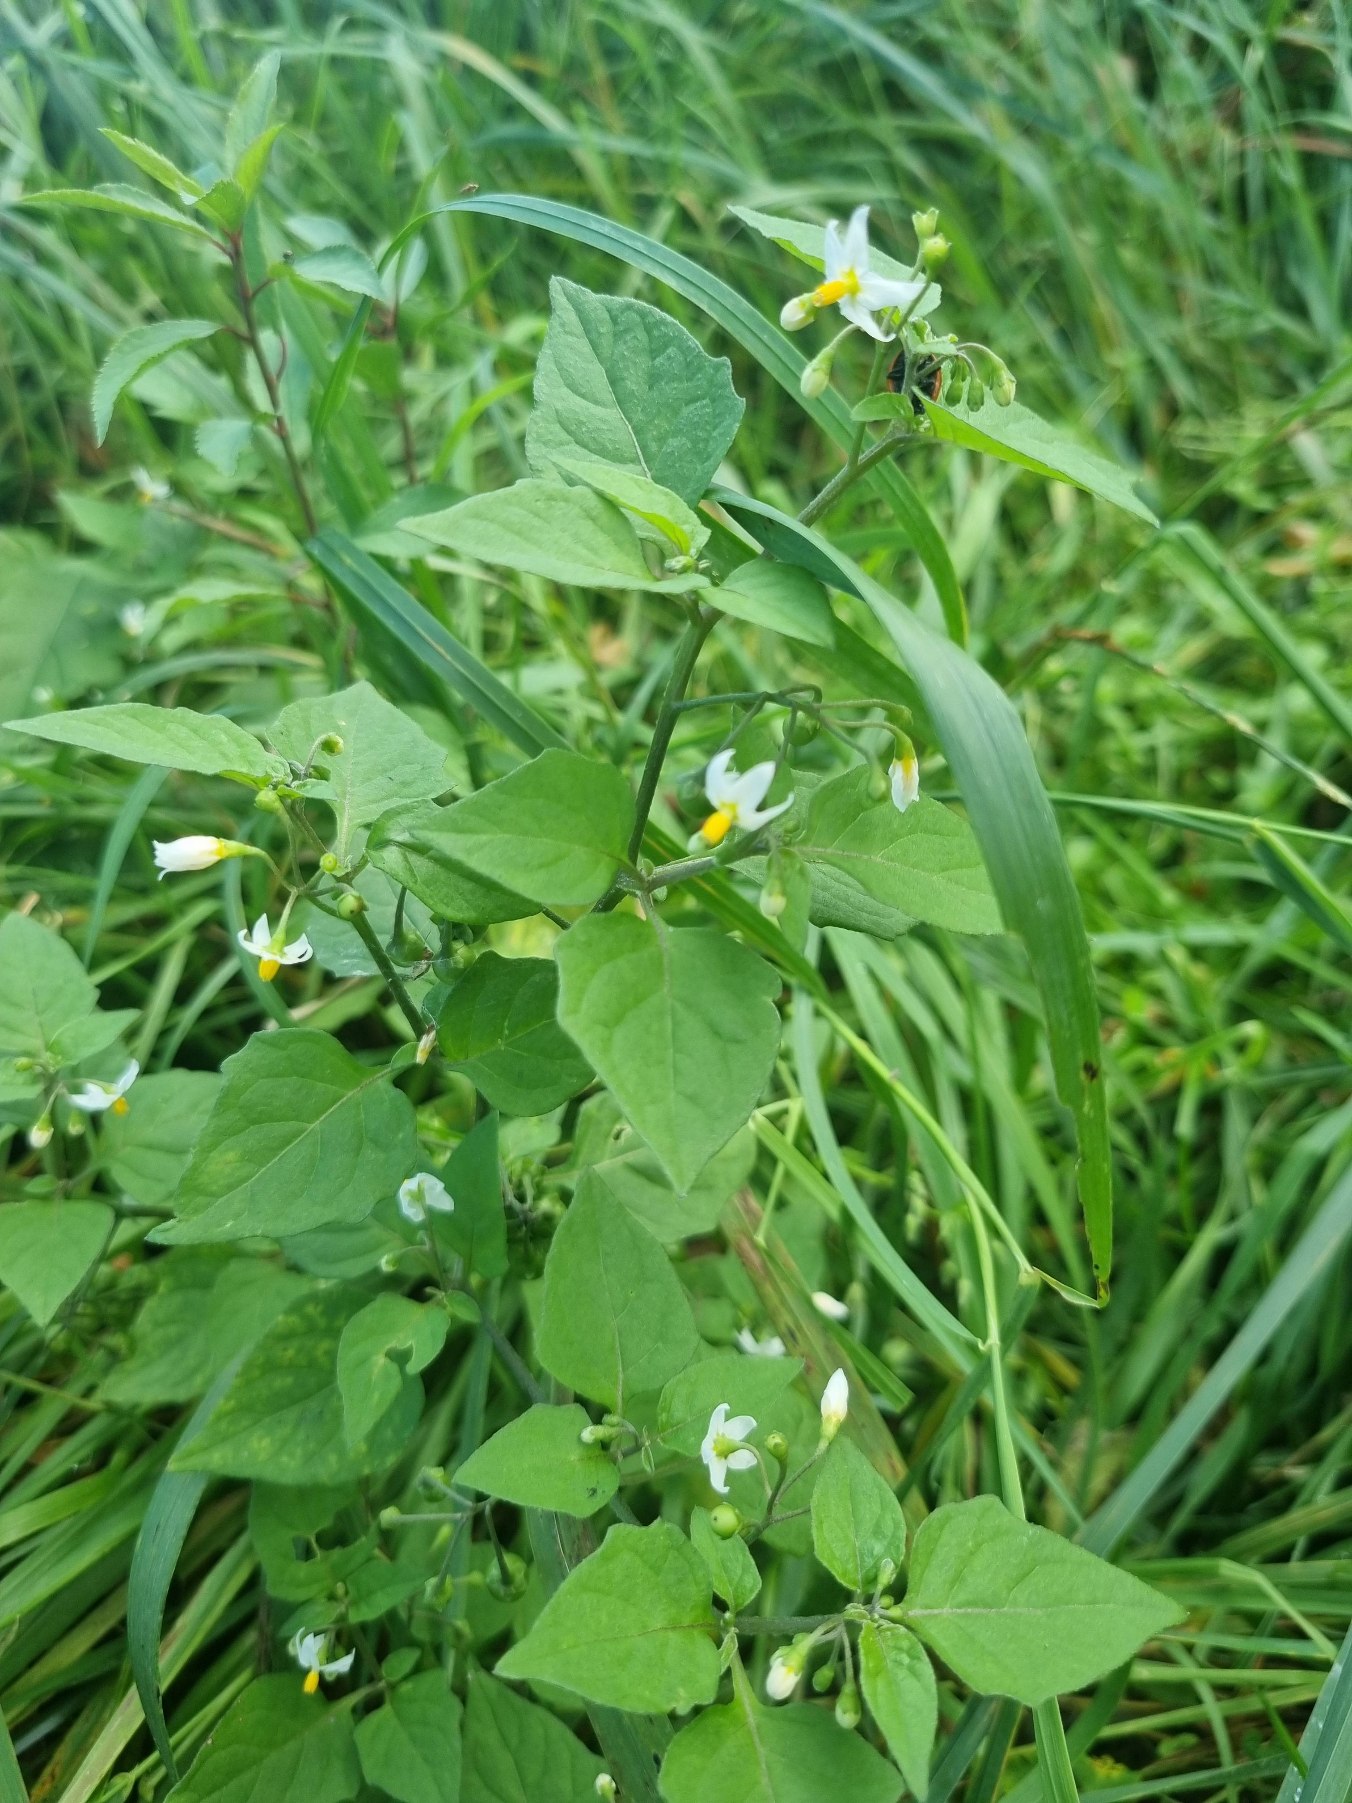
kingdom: Plantae
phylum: Tracheophyta
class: Magnoliopsida
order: Solanales
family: Solanaceae
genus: Solanum
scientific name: Solanum nigrum
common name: Sort natskygge
